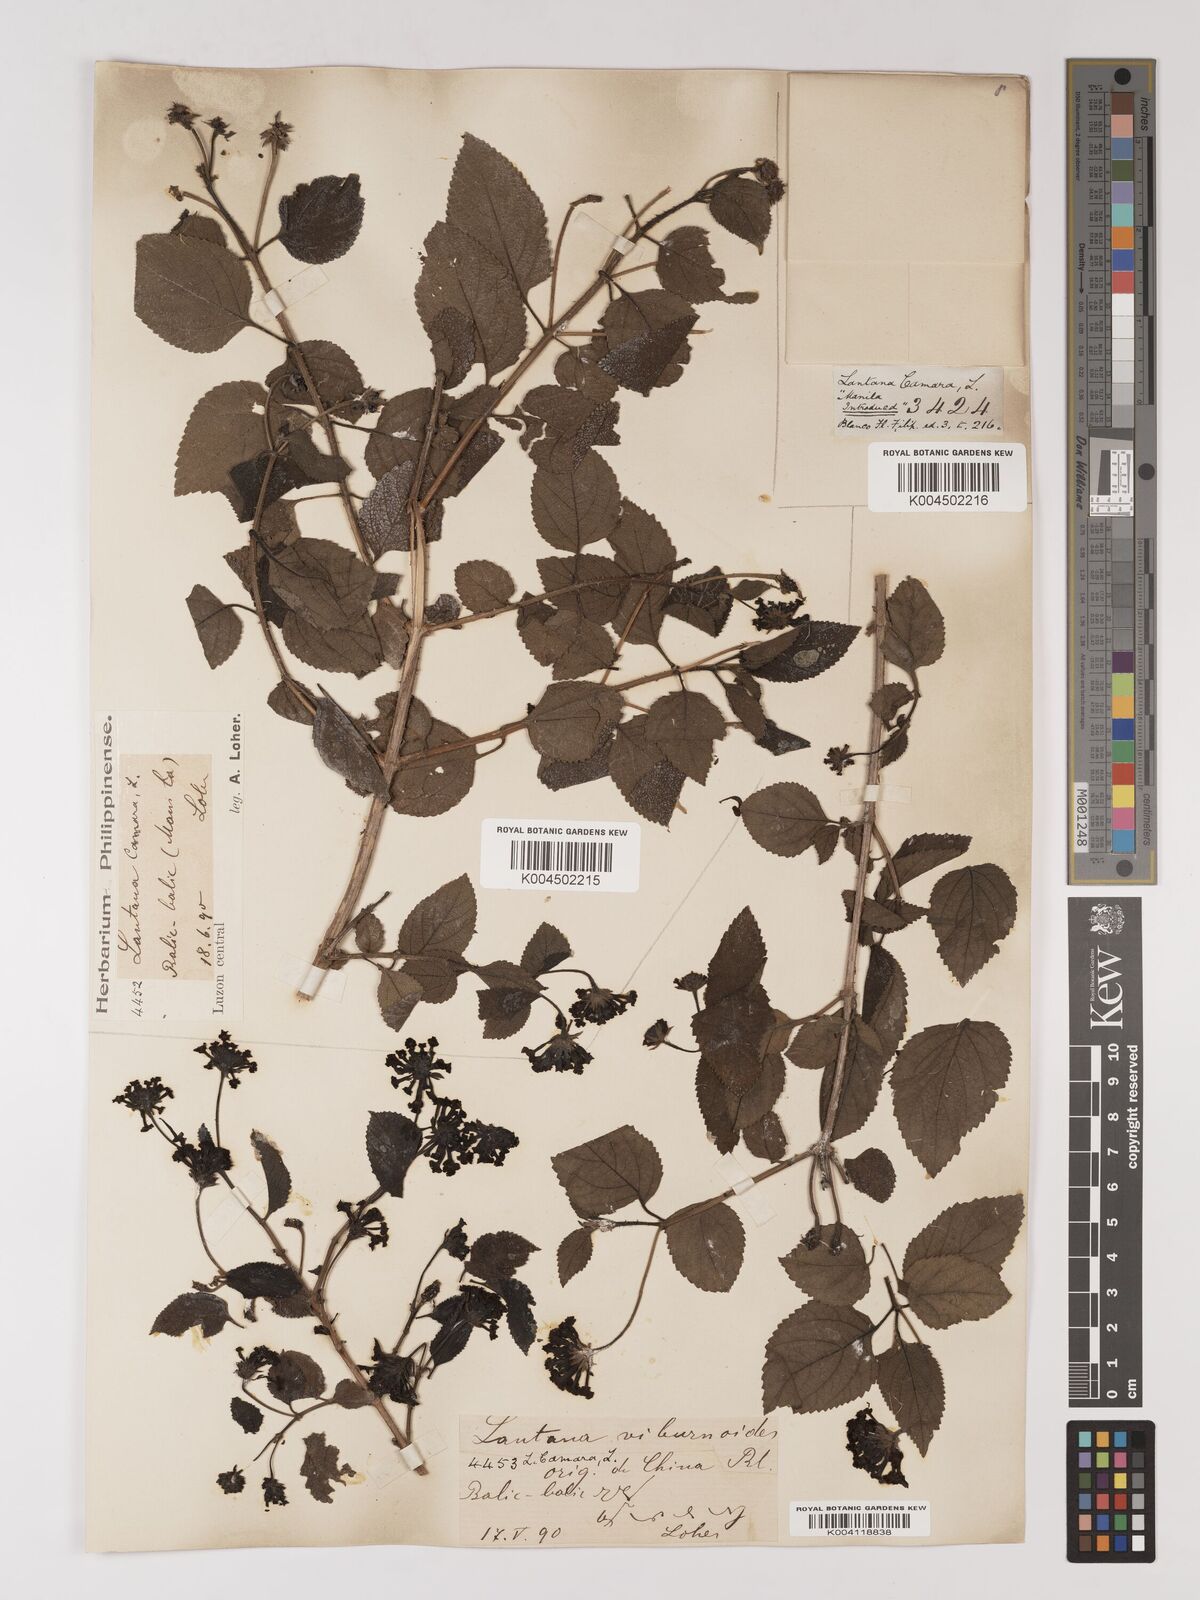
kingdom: Plantae
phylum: Tracheophyta
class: Magnoliopsida
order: Lamiales
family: Verbenaceae
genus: Lantana
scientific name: Lantana
